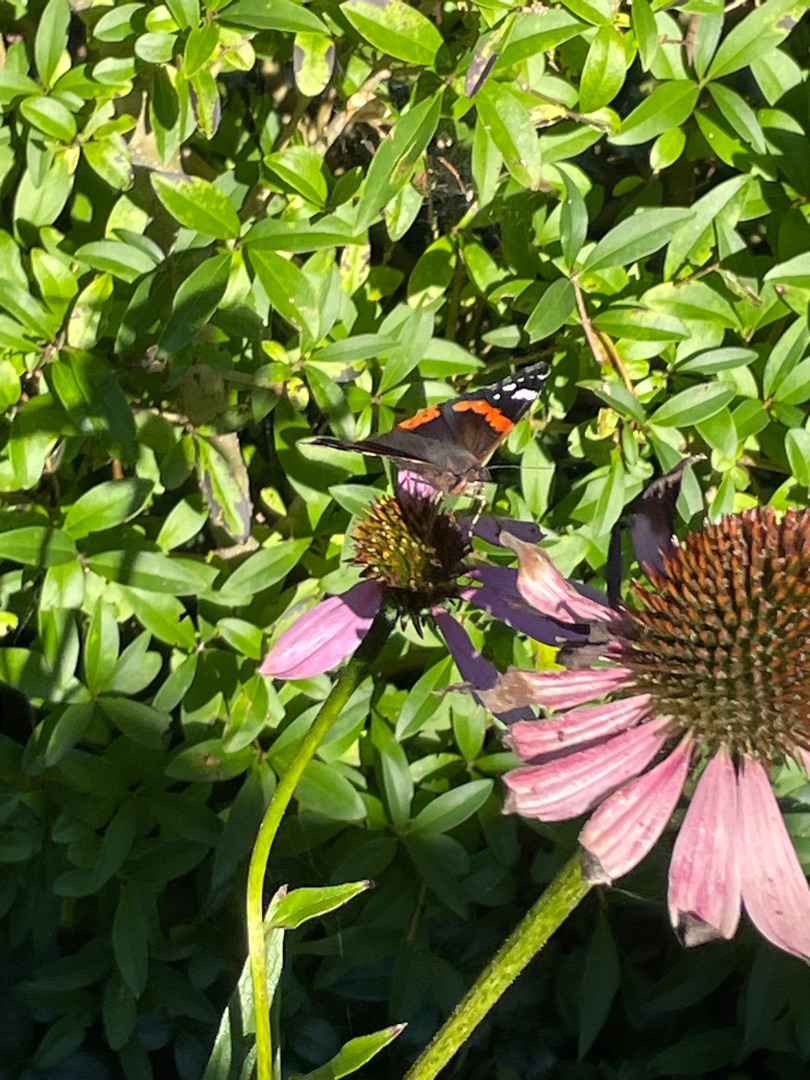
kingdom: Animalia
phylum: Arthropoda
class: Insecta
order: Lepidoptera
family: Nymphalidae
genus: Vanessa
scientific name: Vanessa atalanta
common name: Admiral
